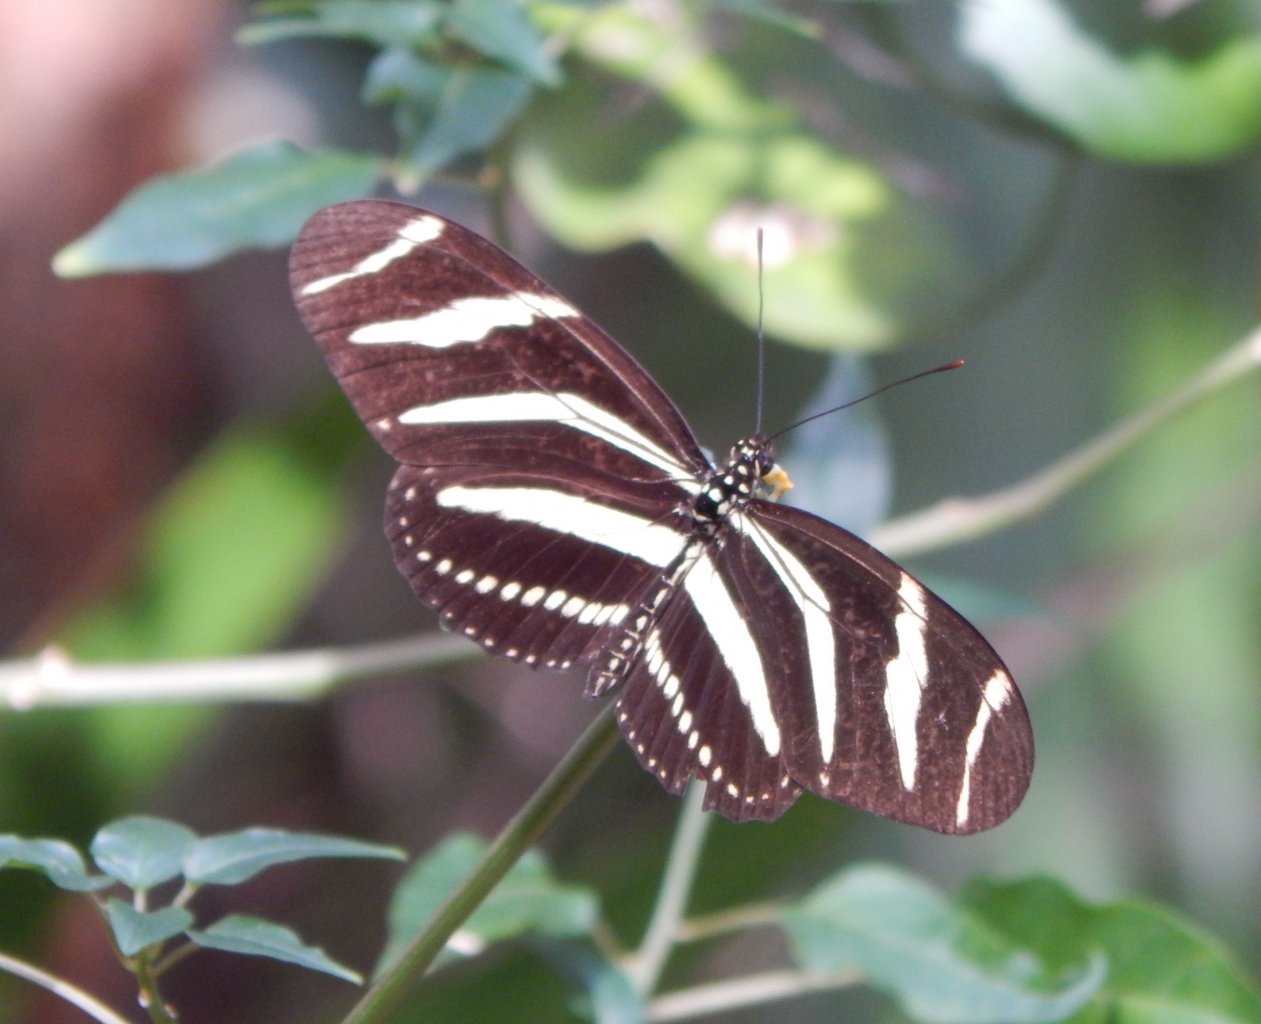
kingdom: Animalia
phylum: Arthropoda
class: Insecta
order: Lepidoptera
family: Nymphalidae
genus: Heliconius
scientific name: Heliconius charithonia
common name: Zebra Longwing
